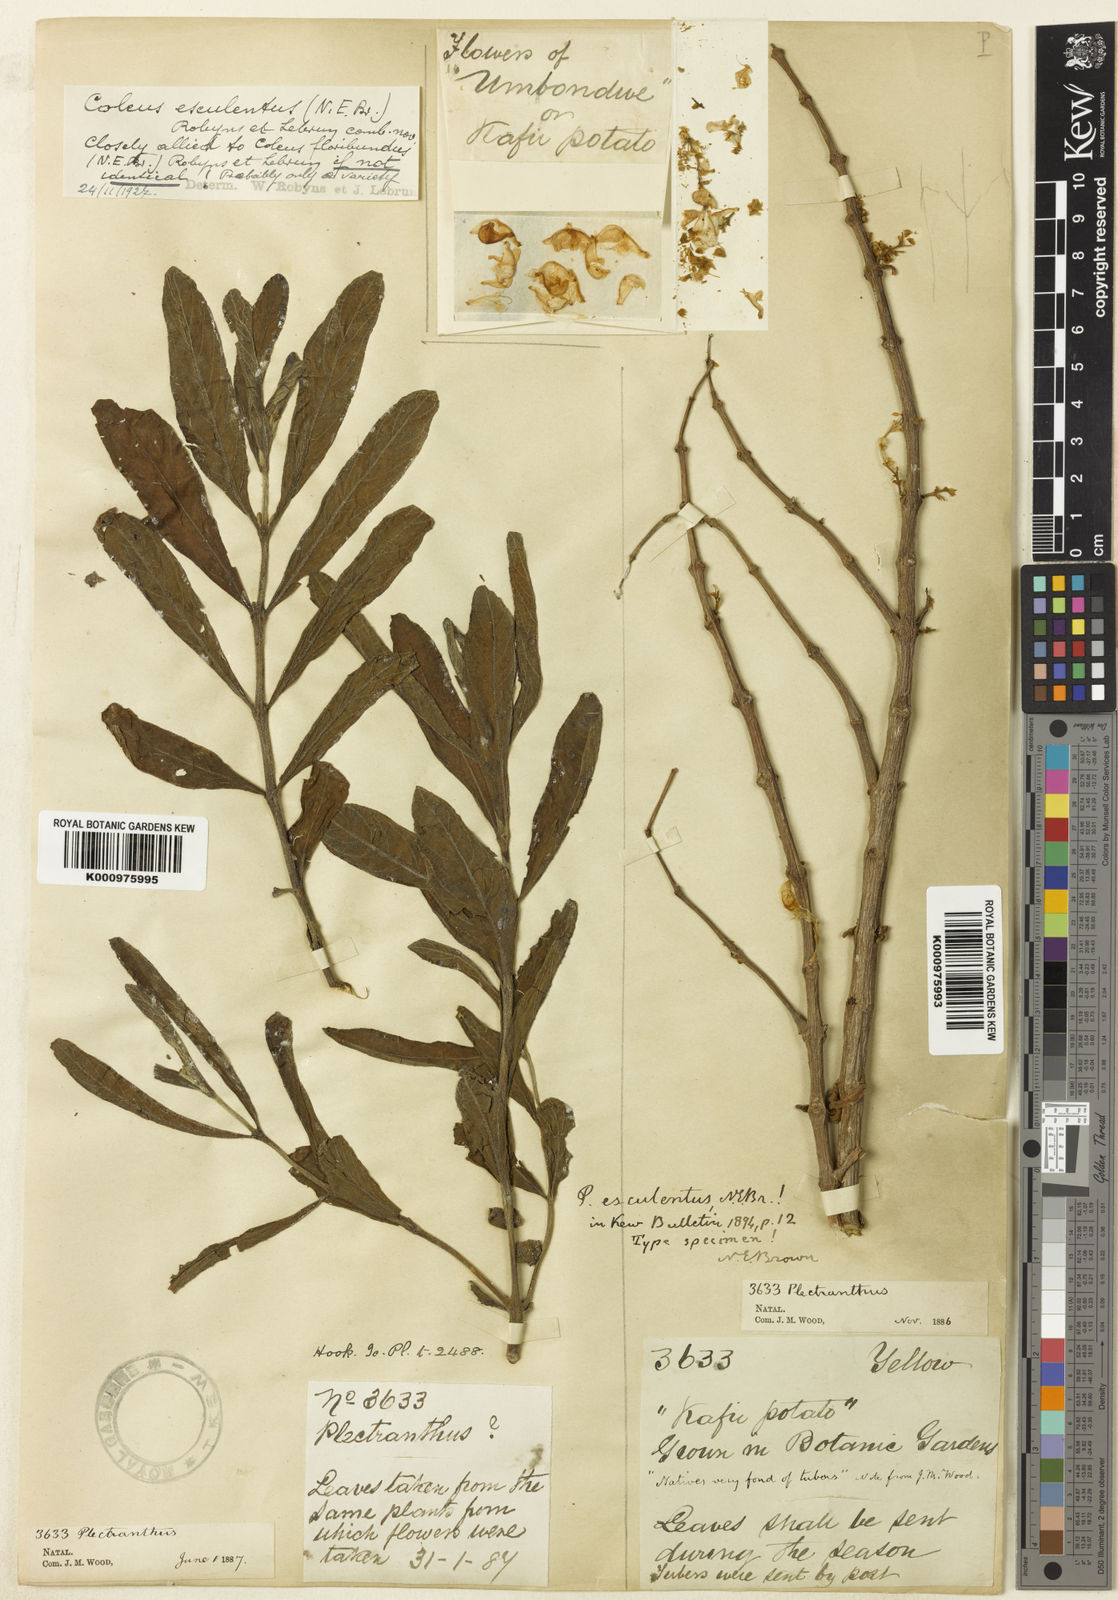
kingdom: Plantae
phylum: Tracheophyta
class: Magnoliopsida
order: Lamiales
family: Lamiaceae
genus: Coleus
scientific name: Coleus esculentus
